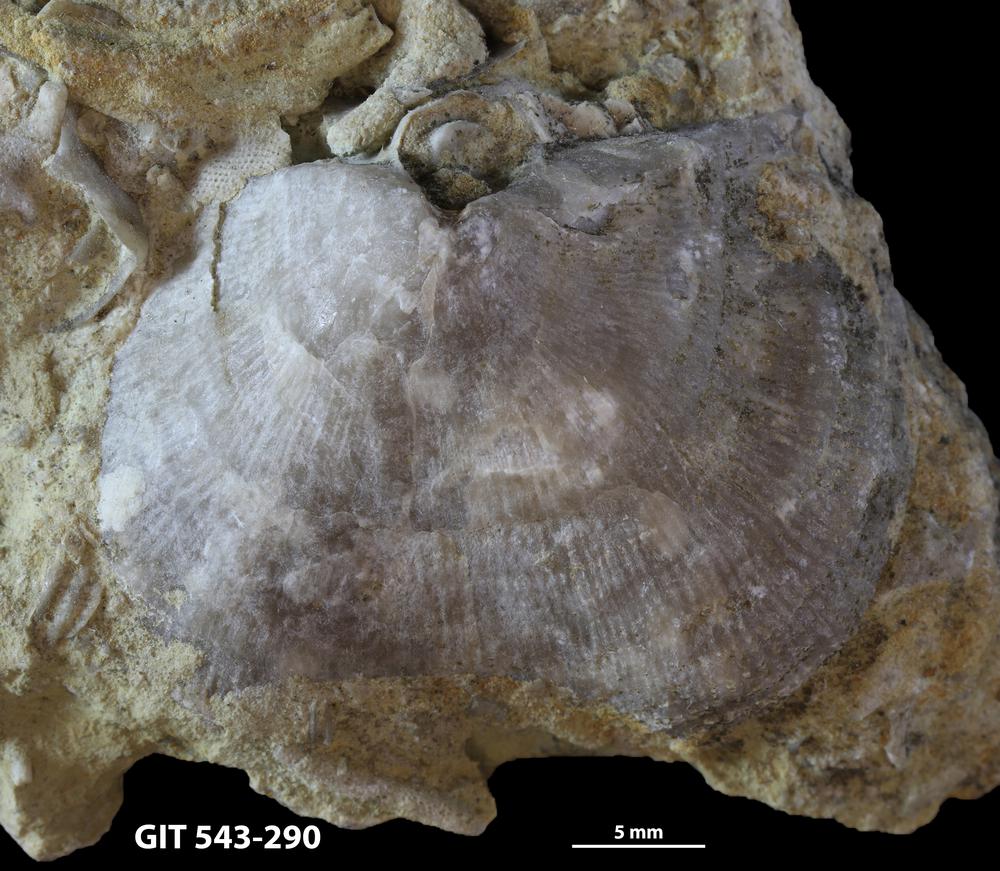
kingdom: Animalia
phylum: Brachiopoda
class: Rhynchonellata
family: Clitambonitidae
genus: Ilmarinia
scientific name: Ilmarinia dimorpha
